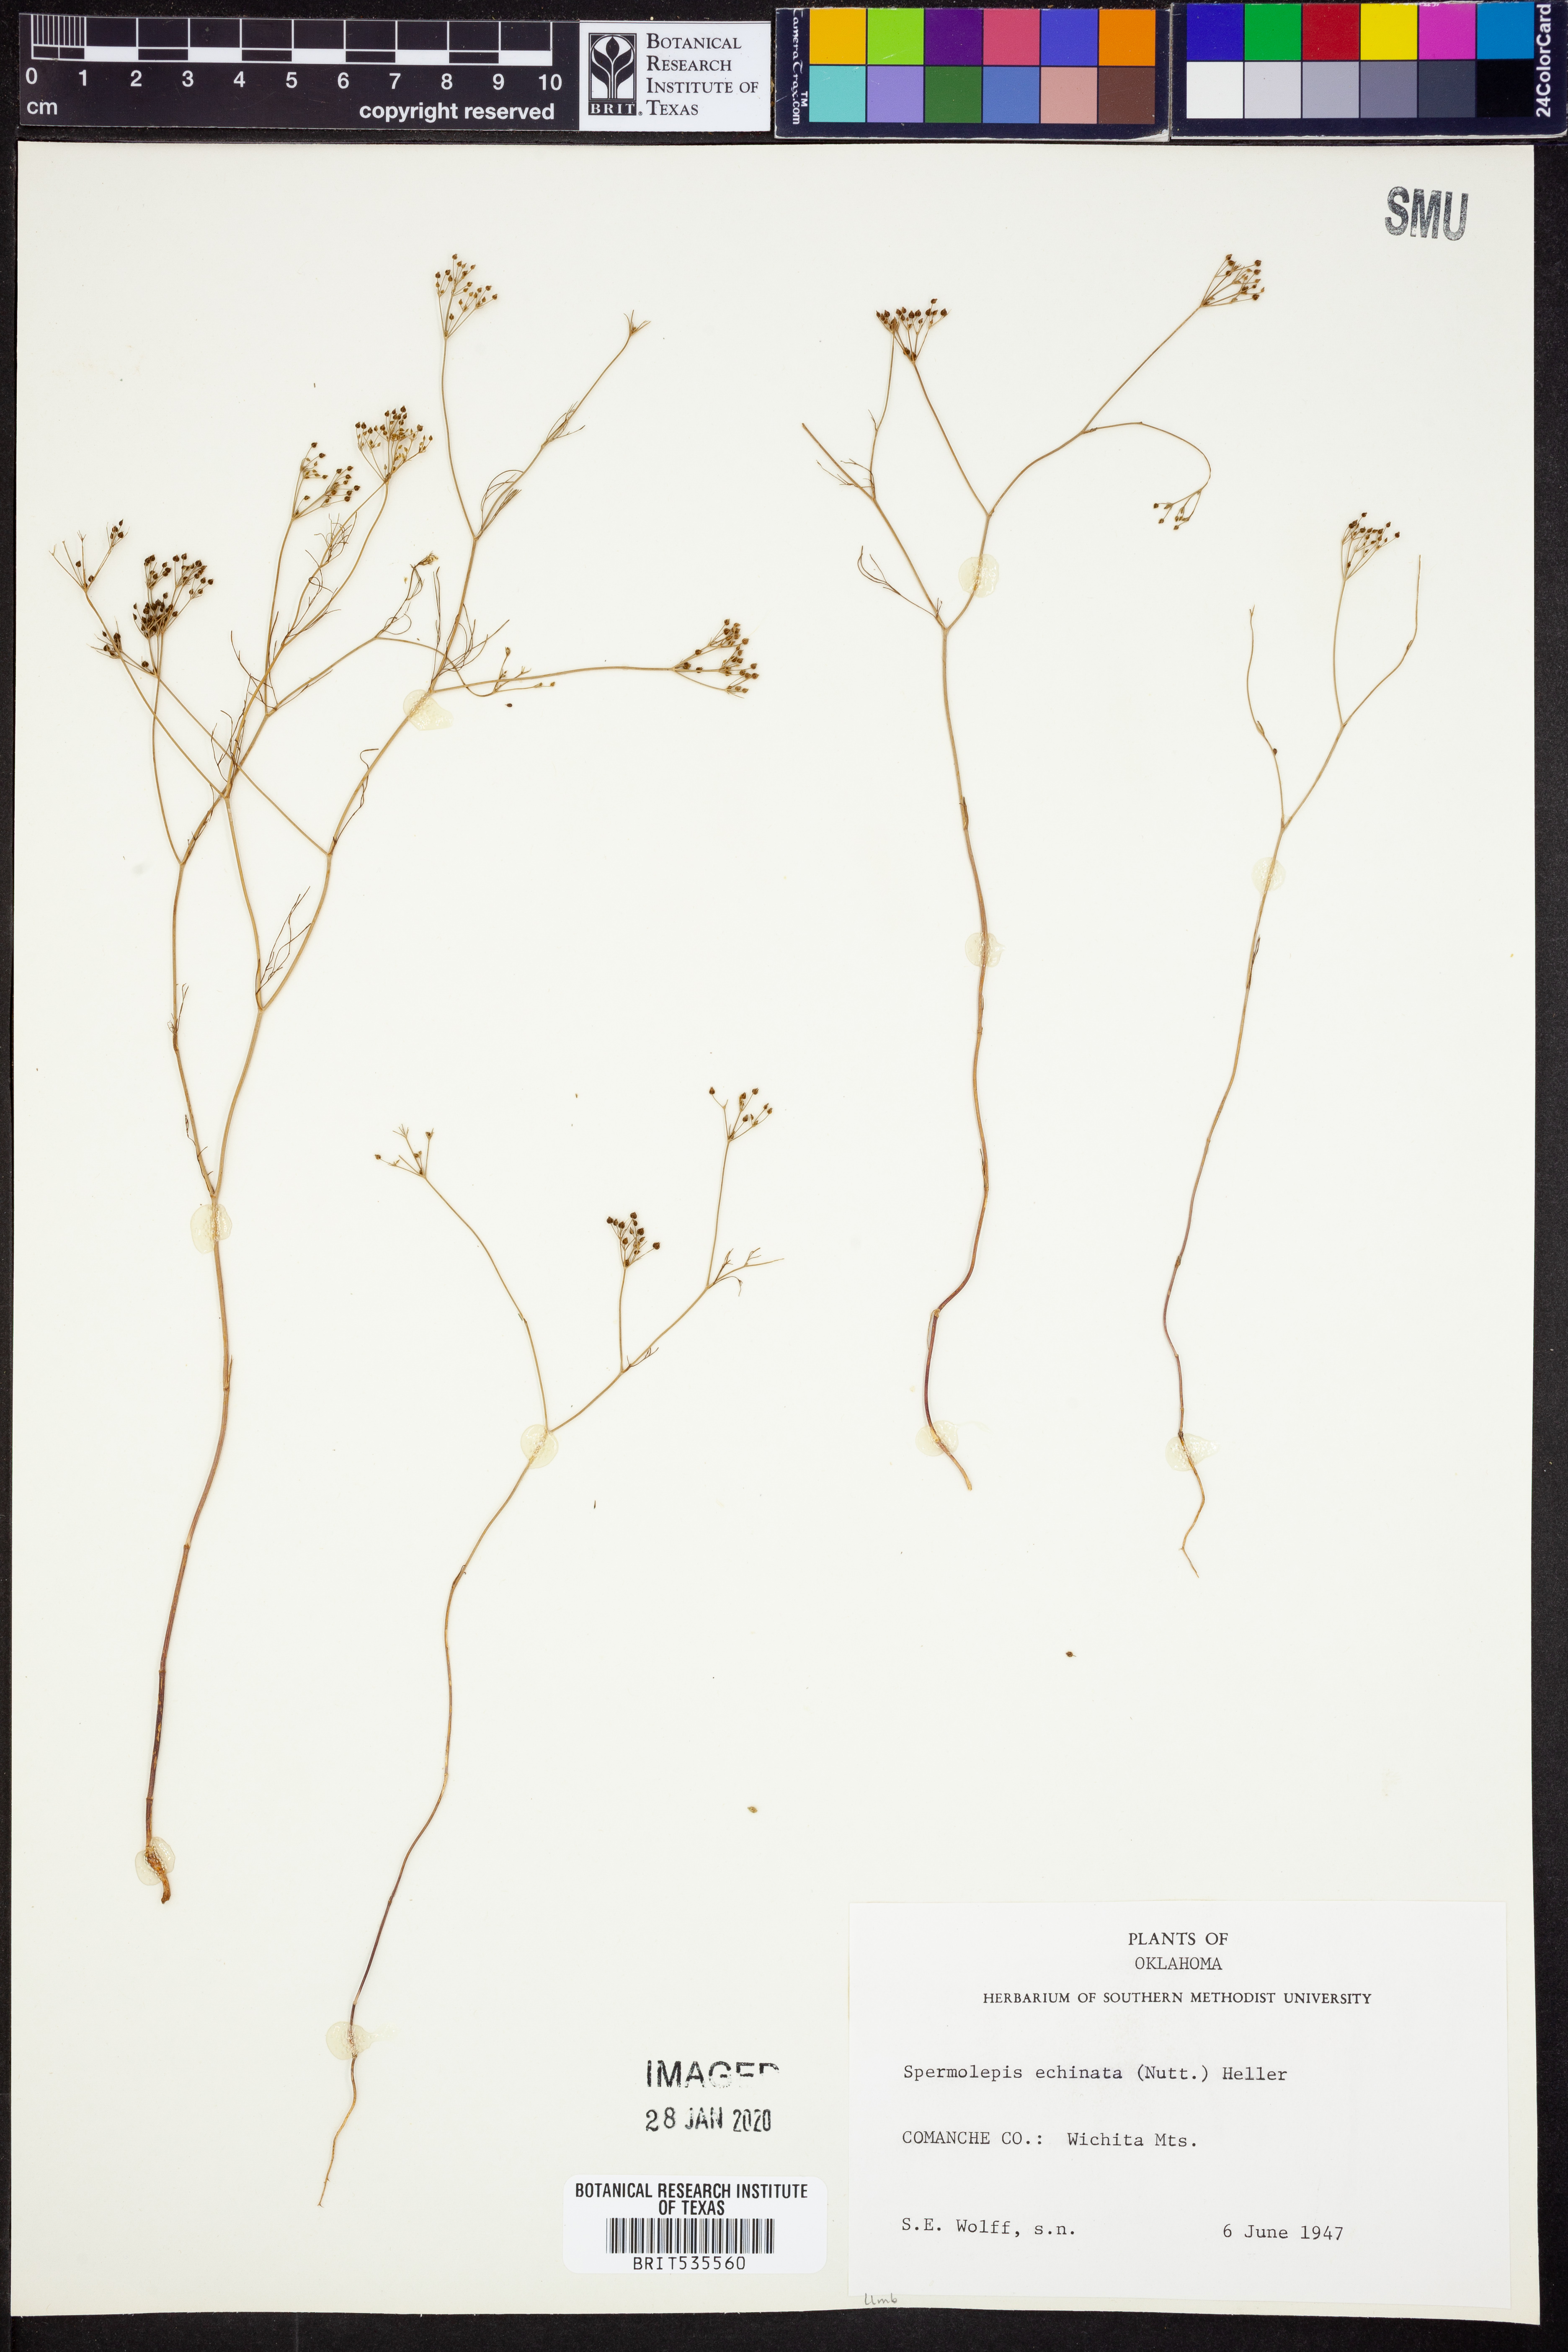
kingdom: Plantae
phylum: Tracheophyta
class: Magnoliopsida
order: Apiales
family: Apiaceae
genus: Spermolepis
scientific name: Spermolepis echinata
